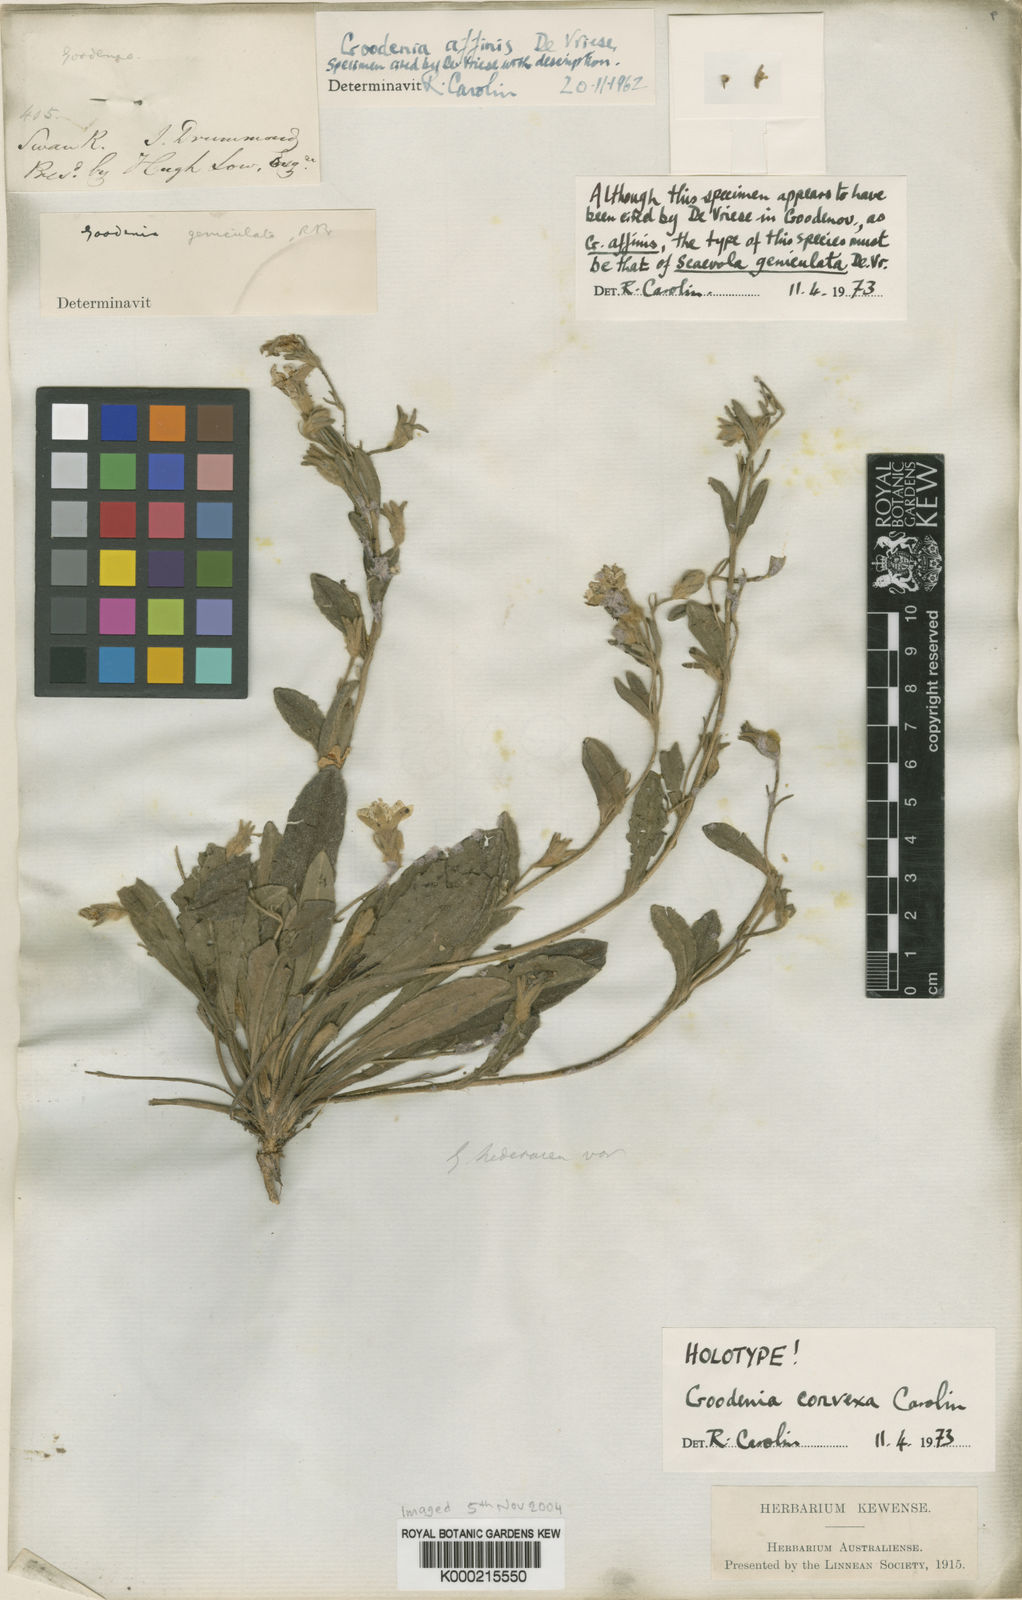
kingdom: Plantae
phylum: Tracheophyta
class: Magnoliopsida
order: Asterales
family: Goodeniaceae
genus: Goodenia
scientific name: Goodenia affinis
